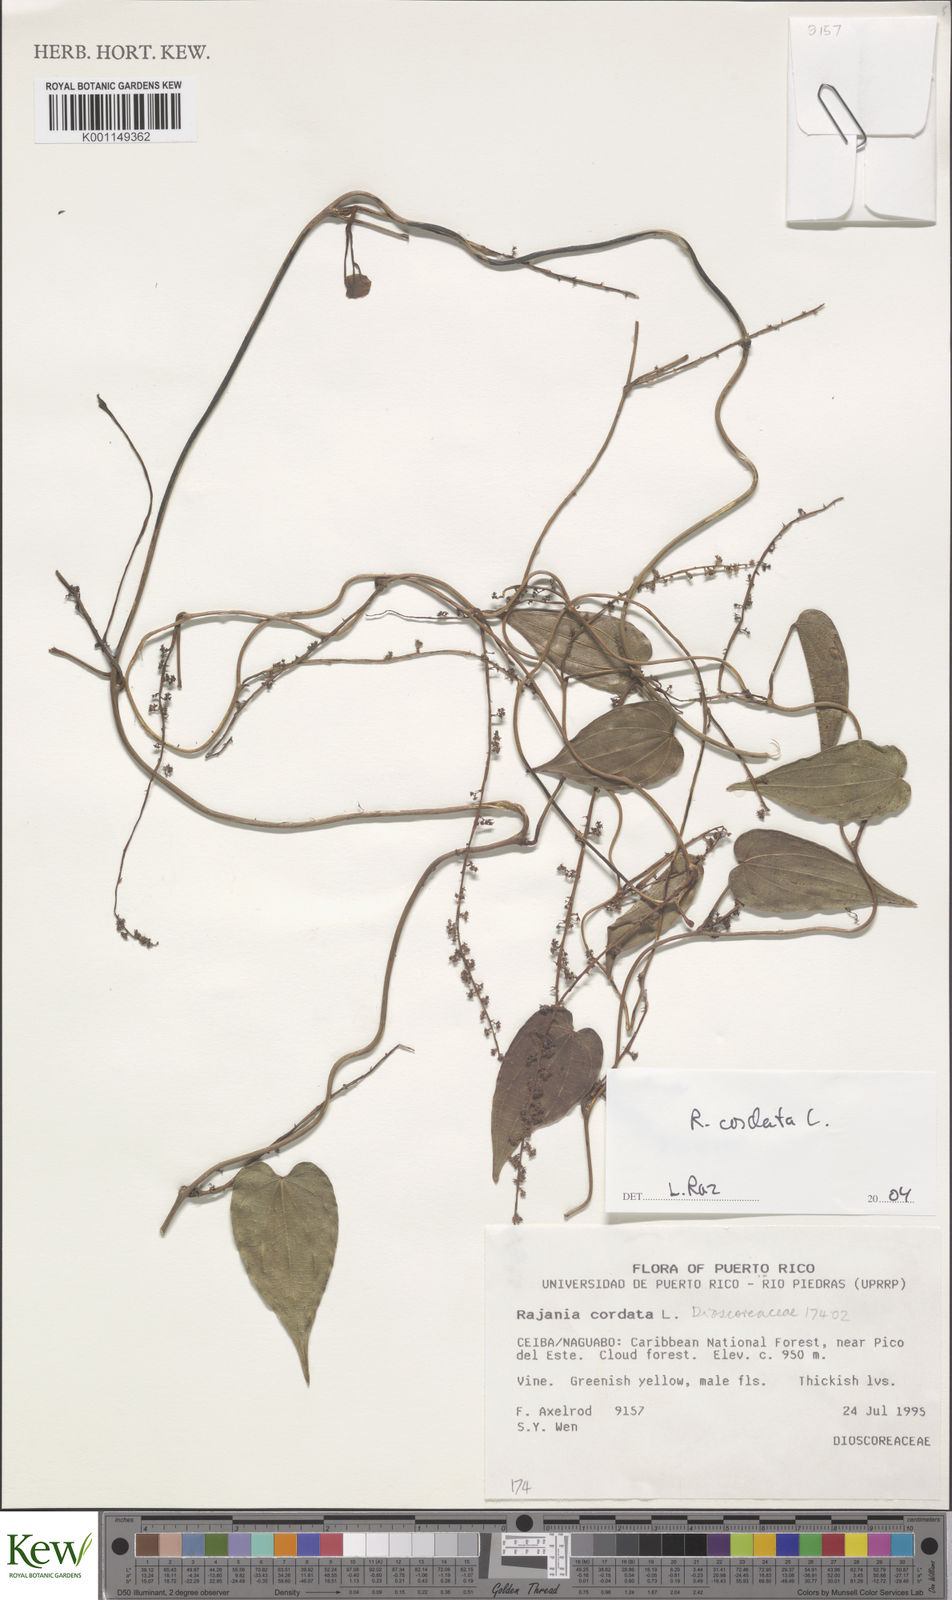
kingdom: Plantae
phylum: Tracheophyta
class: Liliopsida
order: Dioscoreales
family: Dioscoreaceae
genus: Dioscorea
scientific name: Dioscorea
